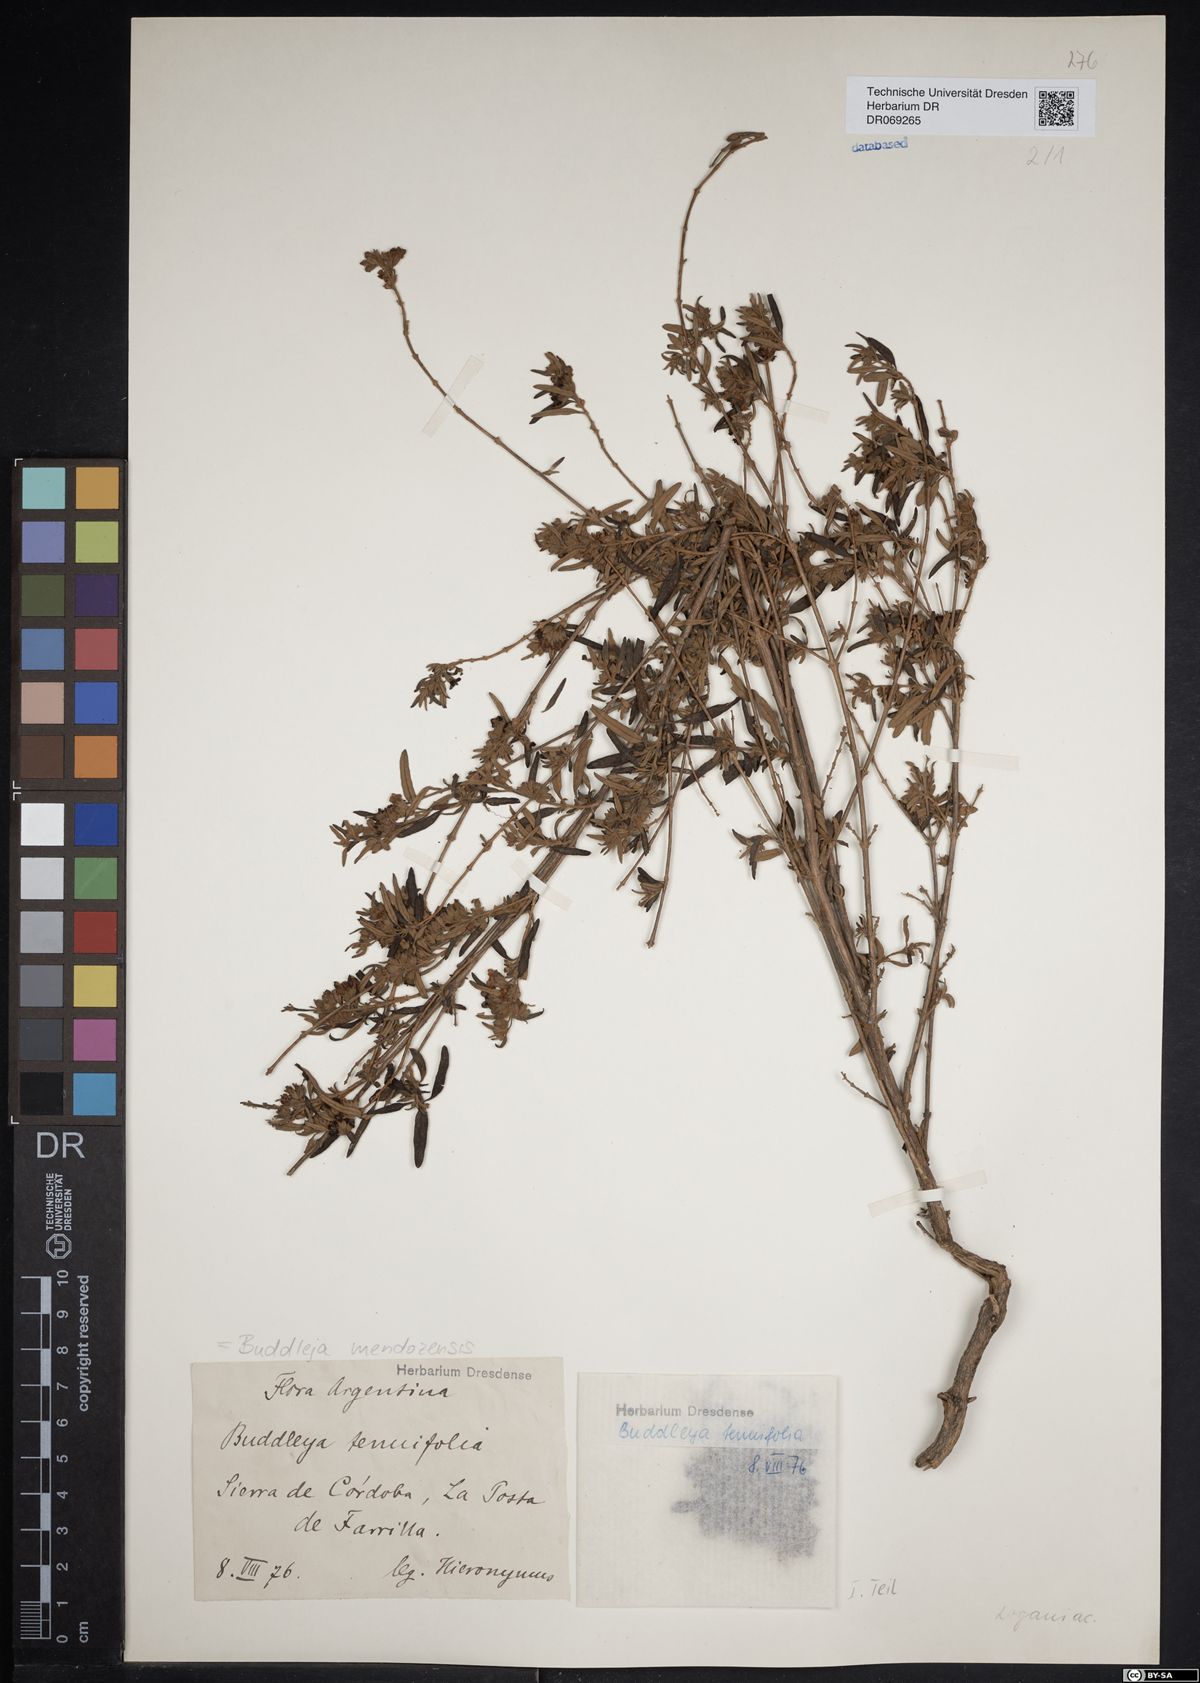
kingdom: Plantae
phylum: Tracheophyta
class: Magnoliopsida
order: Lamiales
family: Scrophulariaceae
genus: Buddleja
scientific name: Buddleja mendozensis
